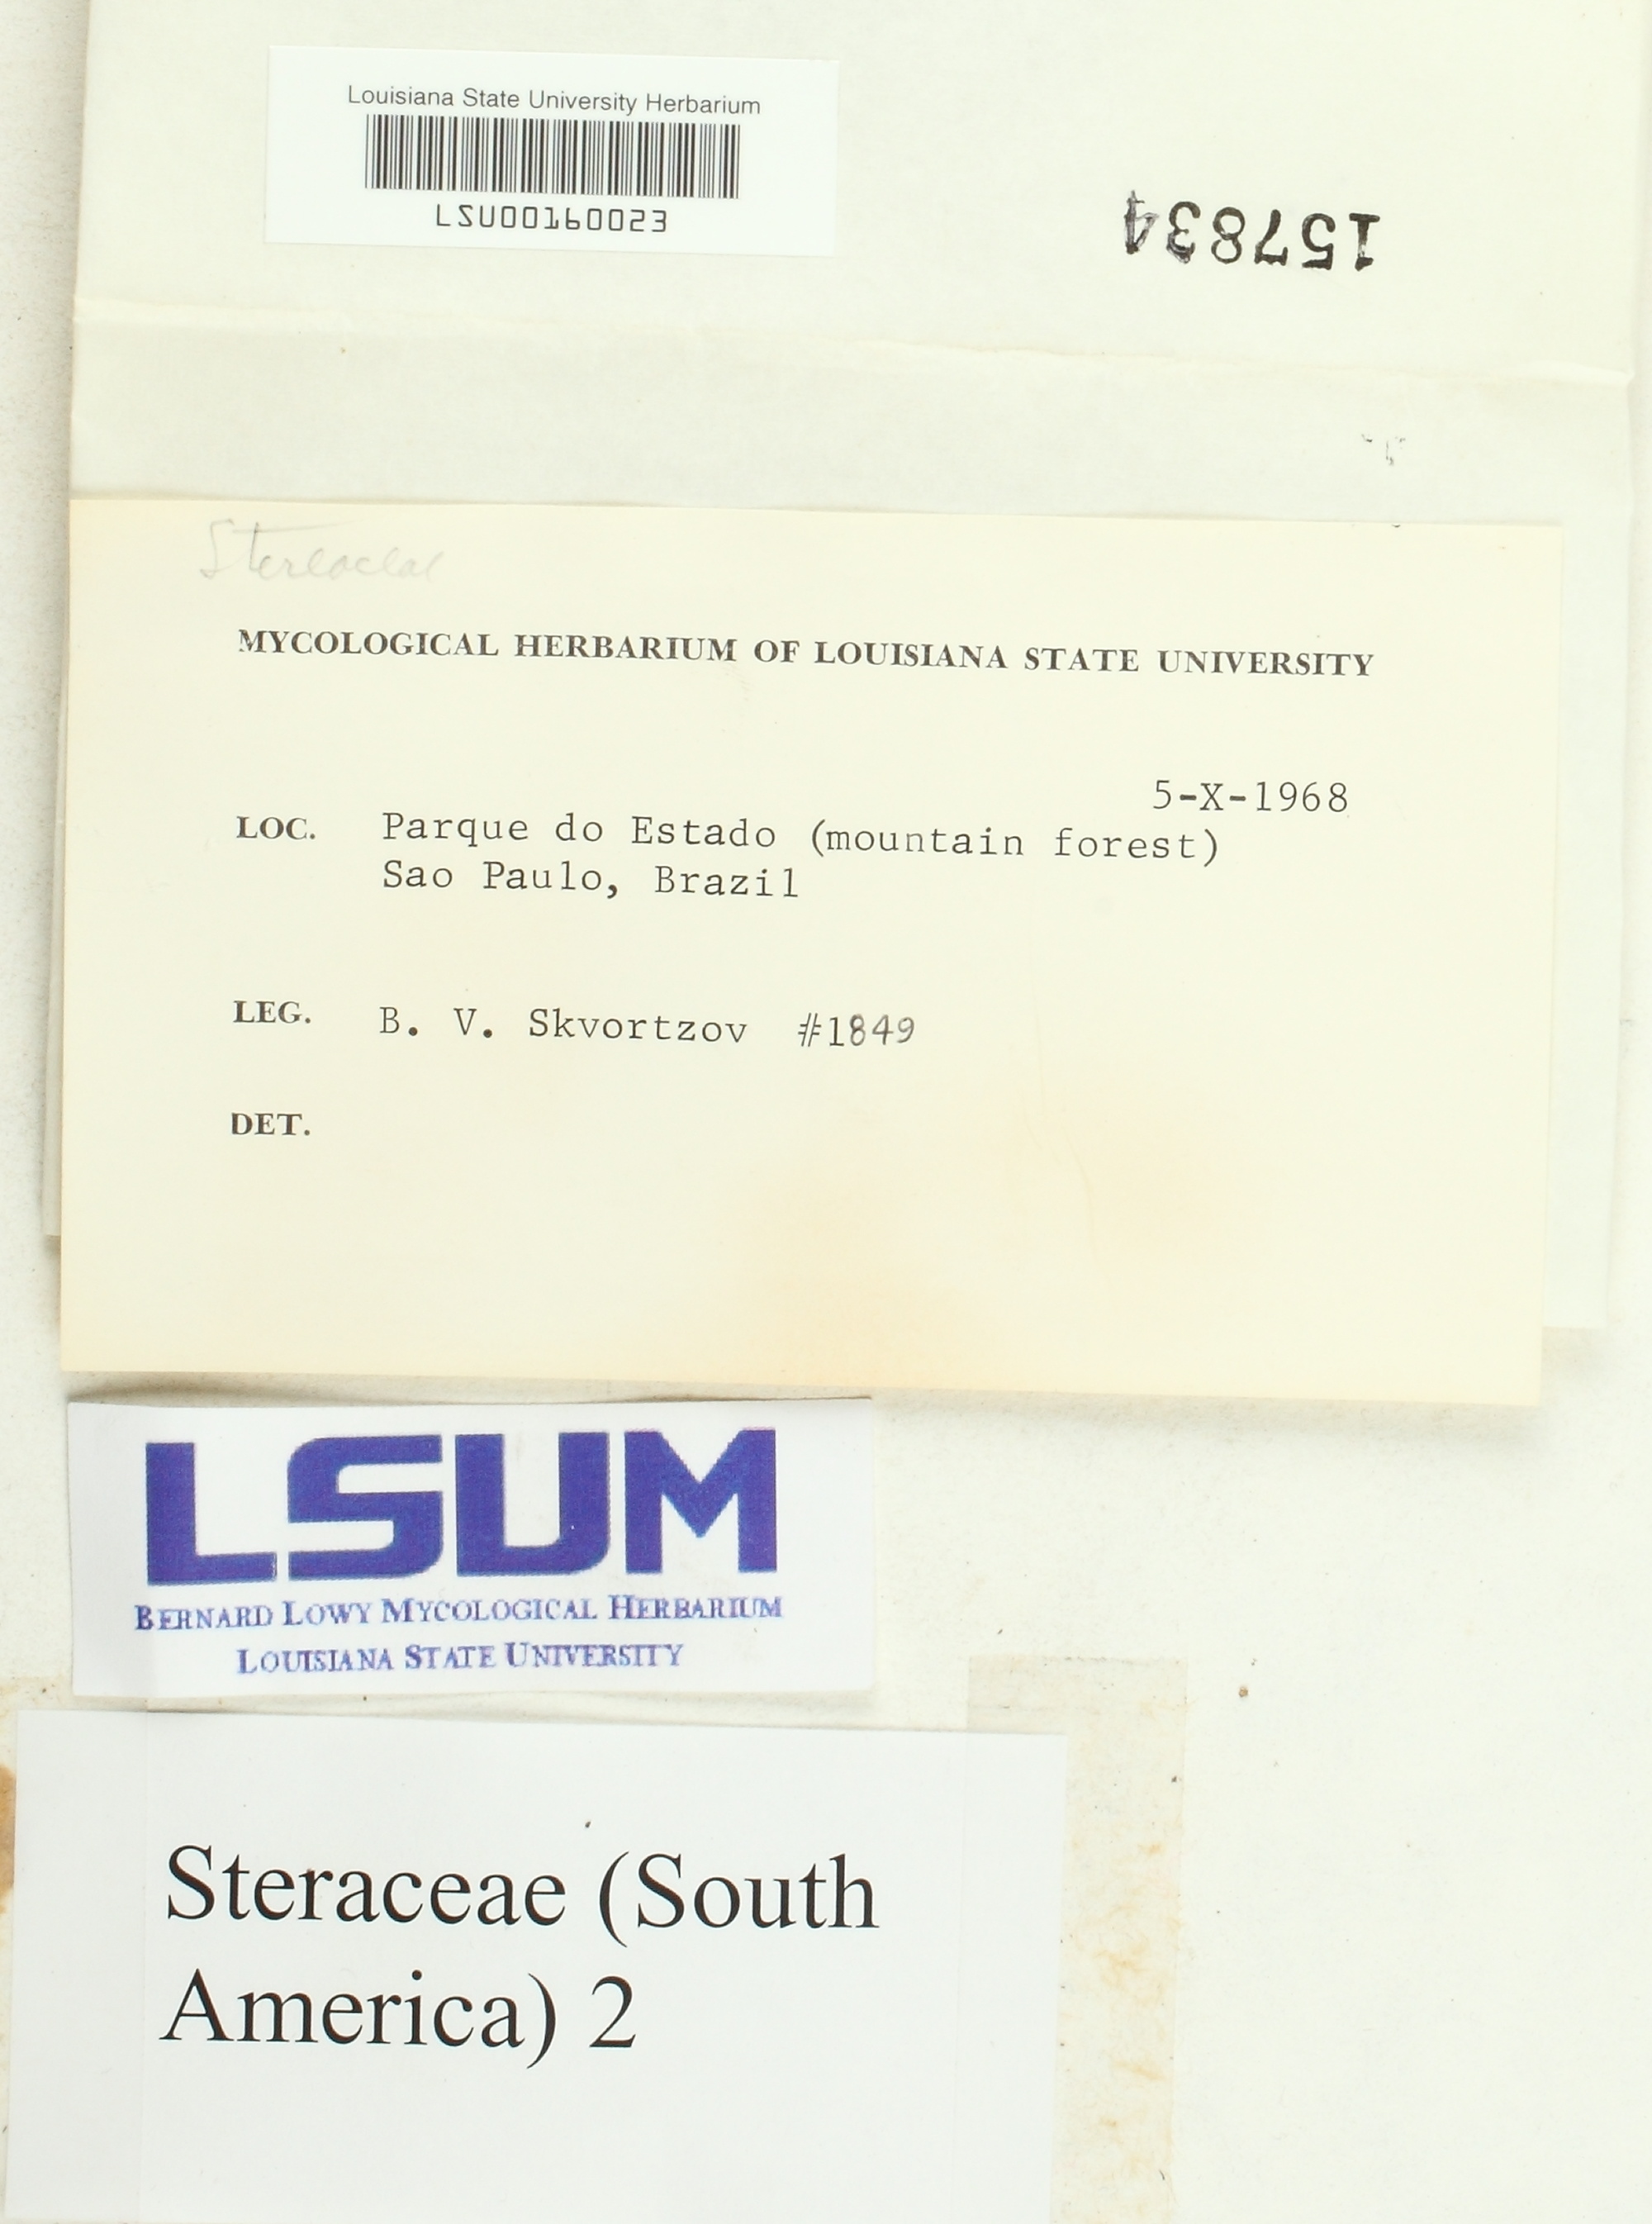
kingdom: Fungi
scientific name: Fungi
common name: Fungi
